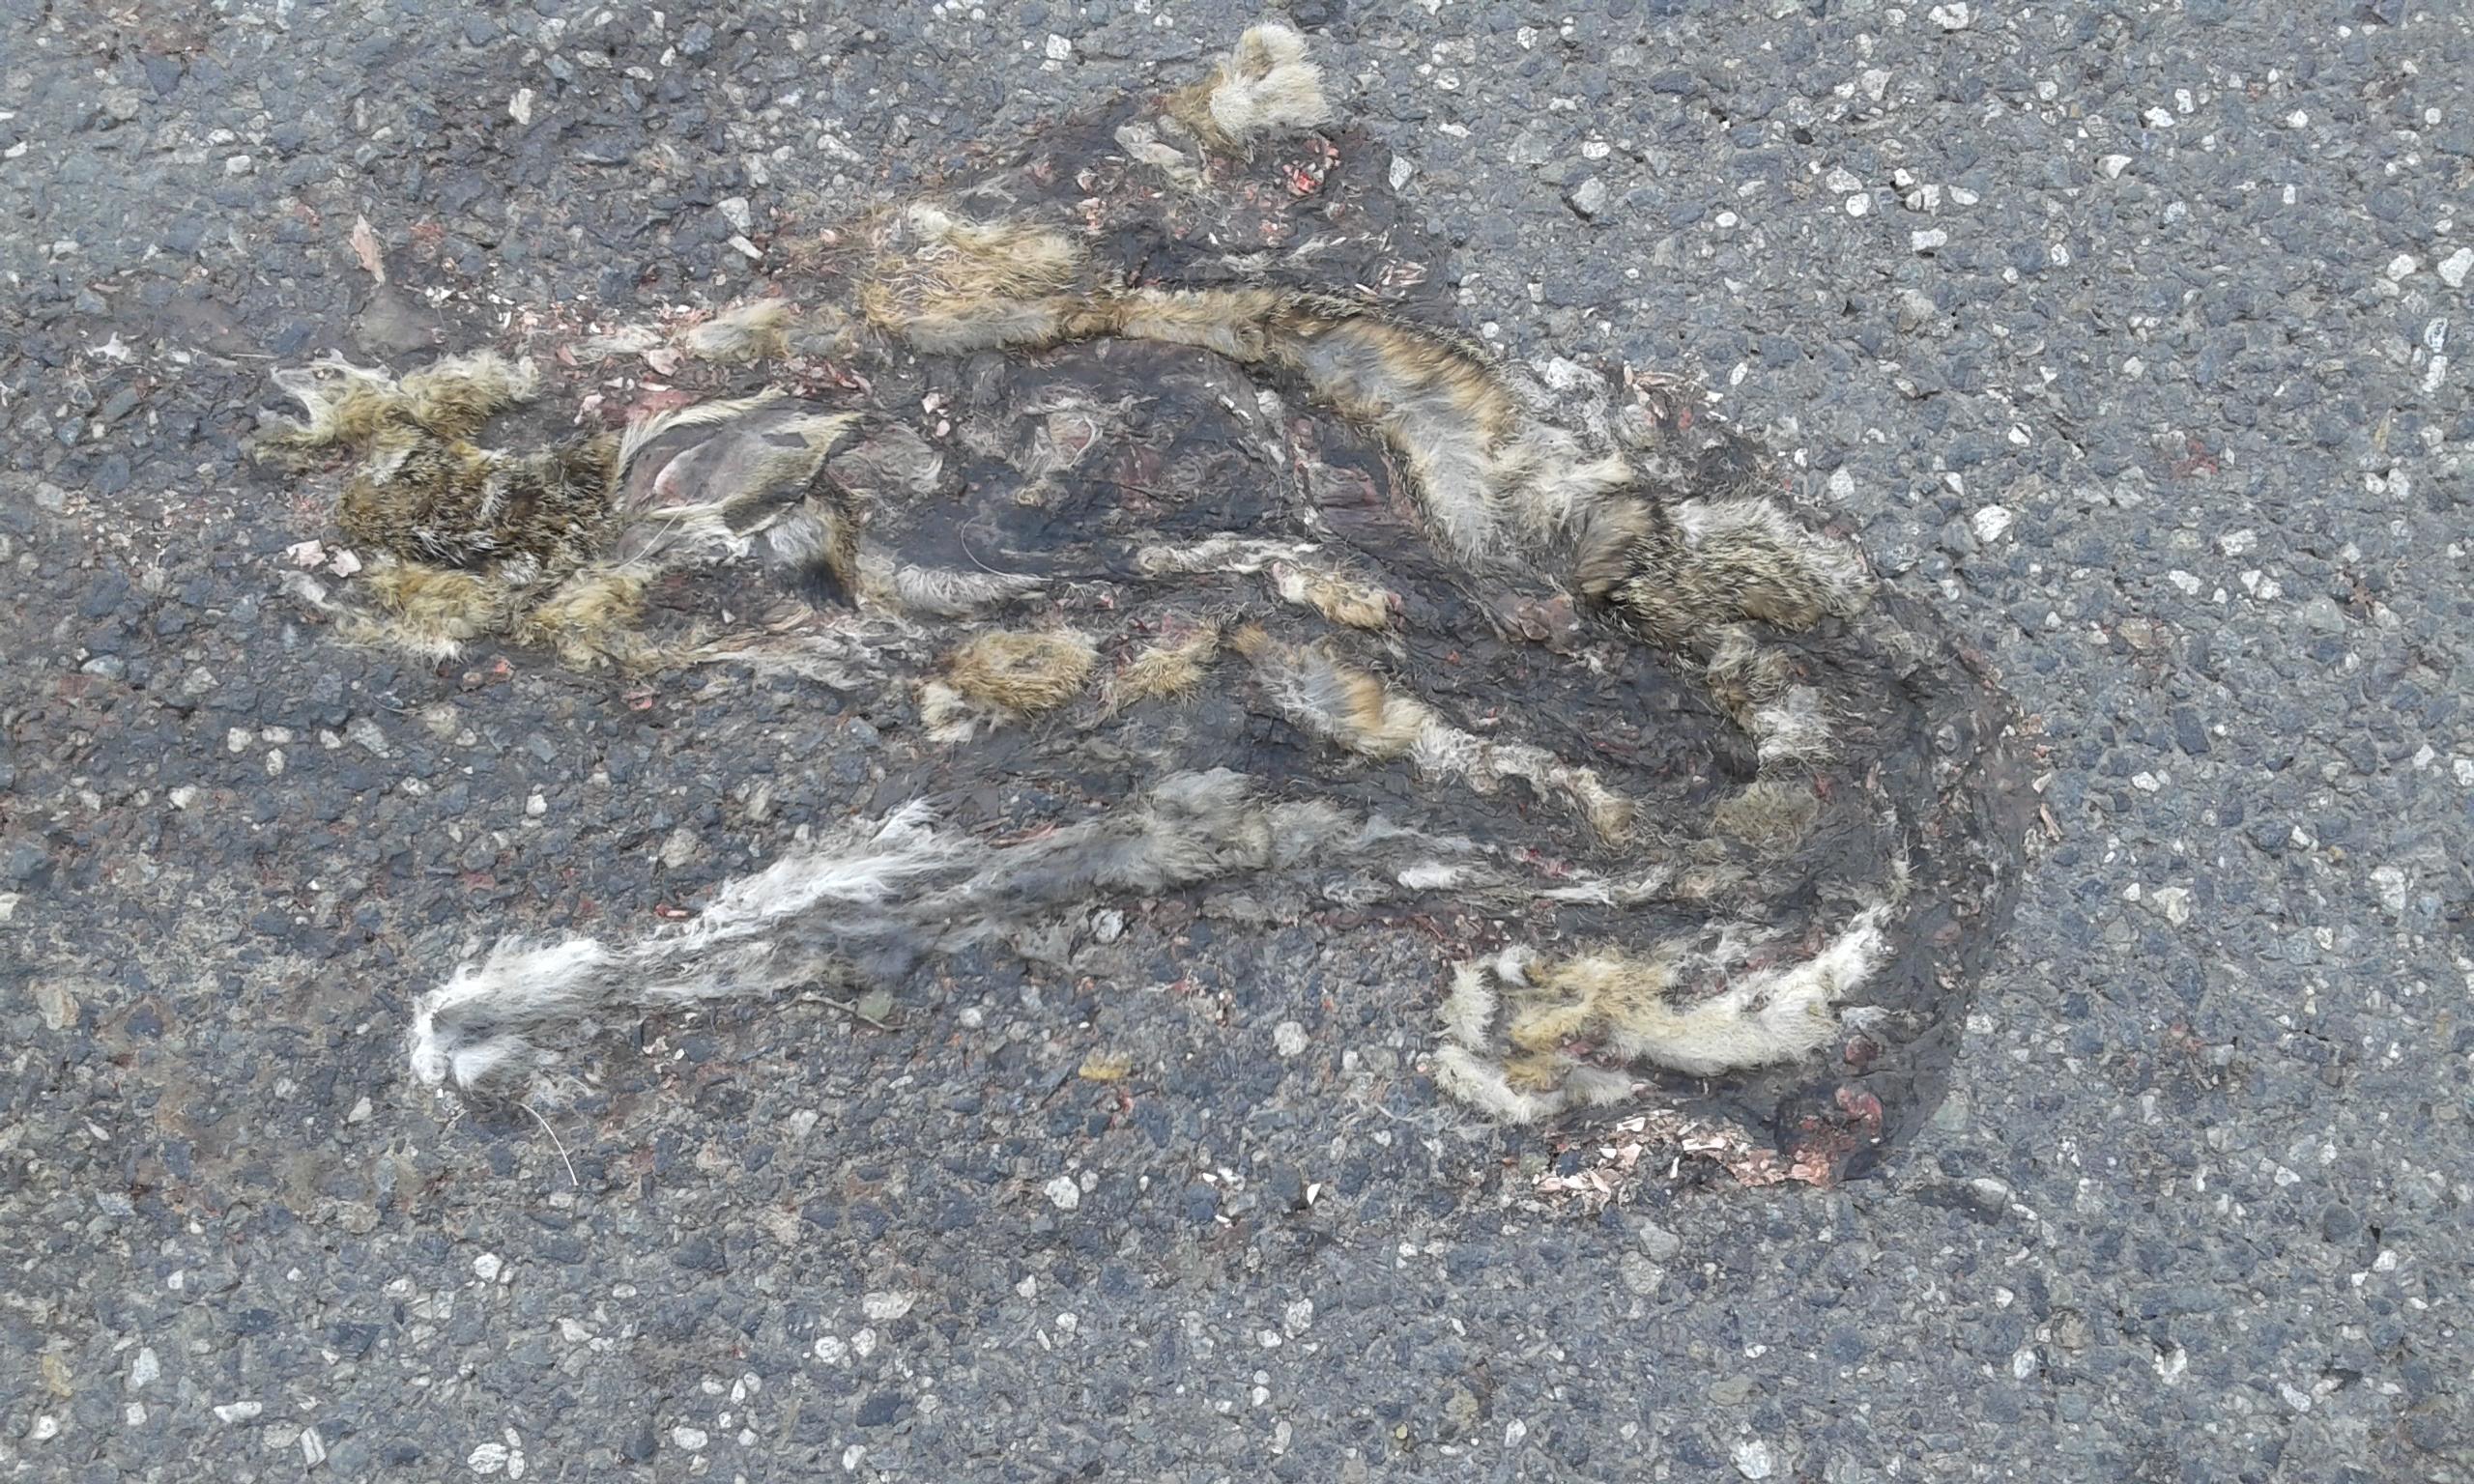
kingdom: Animalia
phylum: Chordata
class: Mammalia
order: Lagomorpha
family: Leporidae
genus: Lepus
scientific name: Lepus europaeus
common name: European hare
